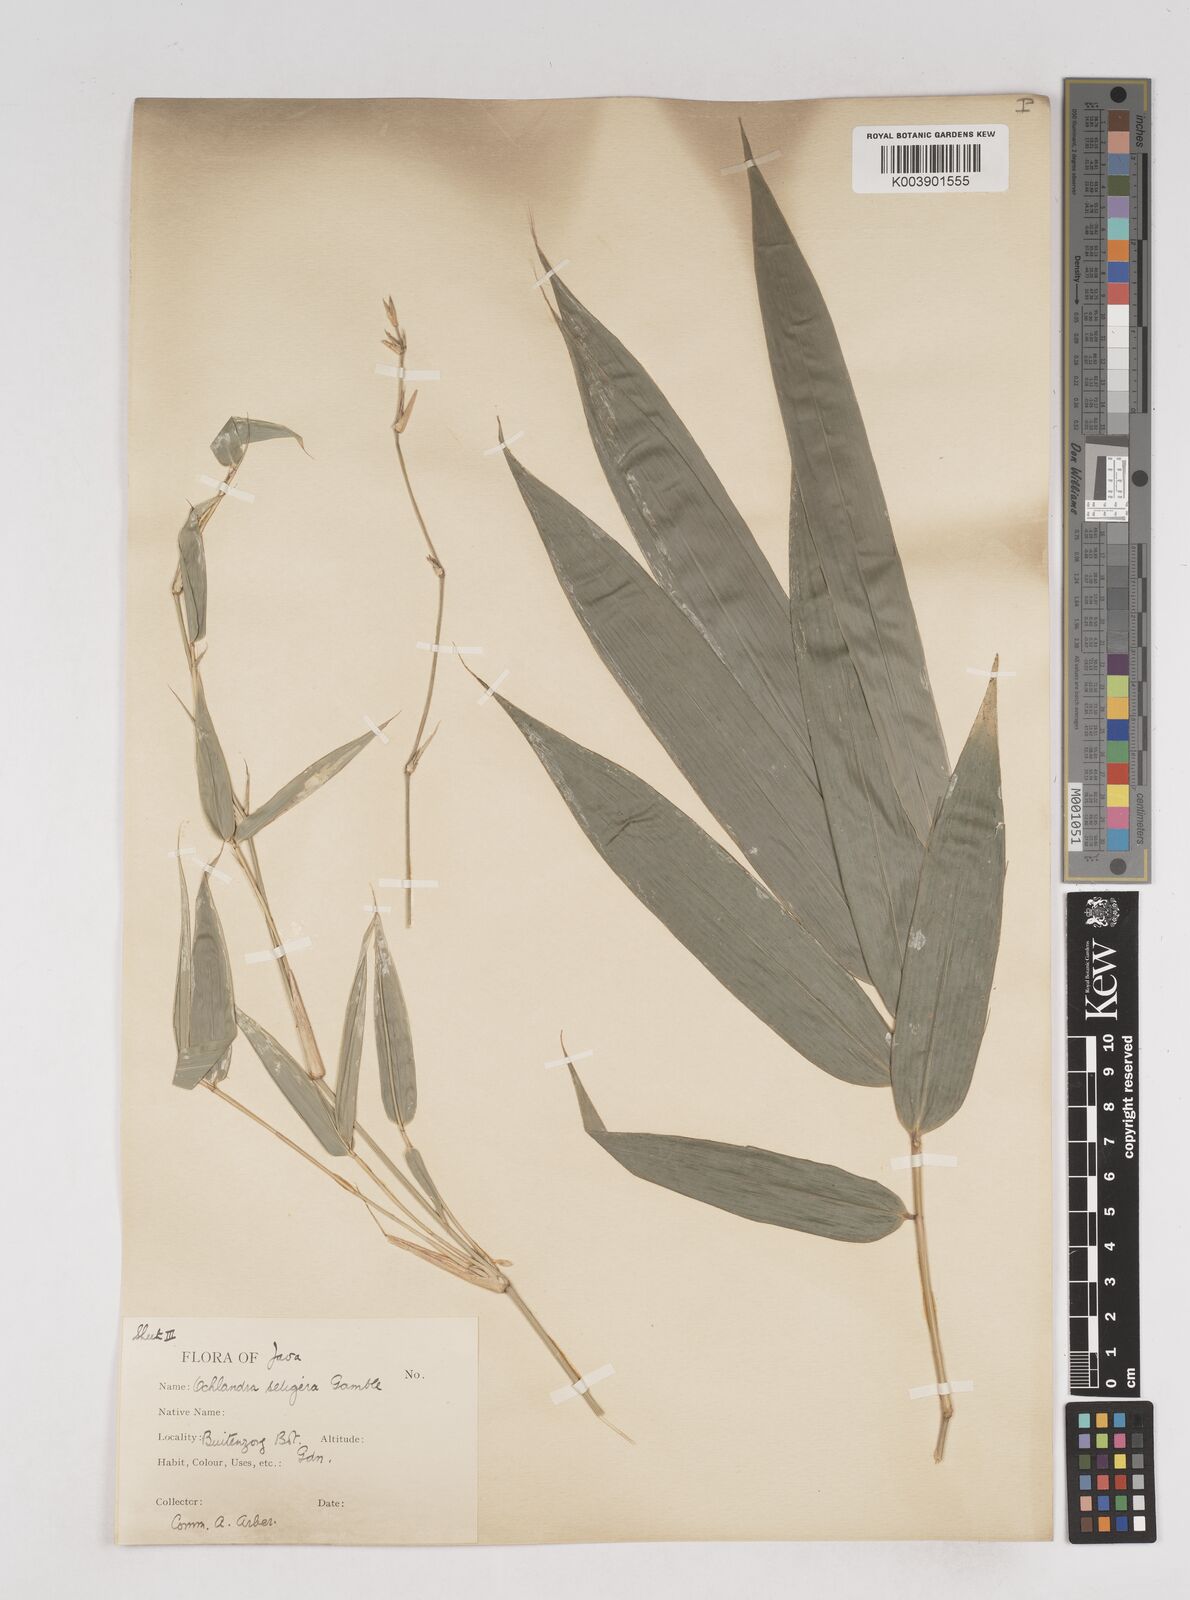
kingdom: Plantae
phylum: Tracheophyta
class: Liliopsida
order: Poales
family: Poaceae
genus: Ochlandra
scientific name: Ochlandra setigera
